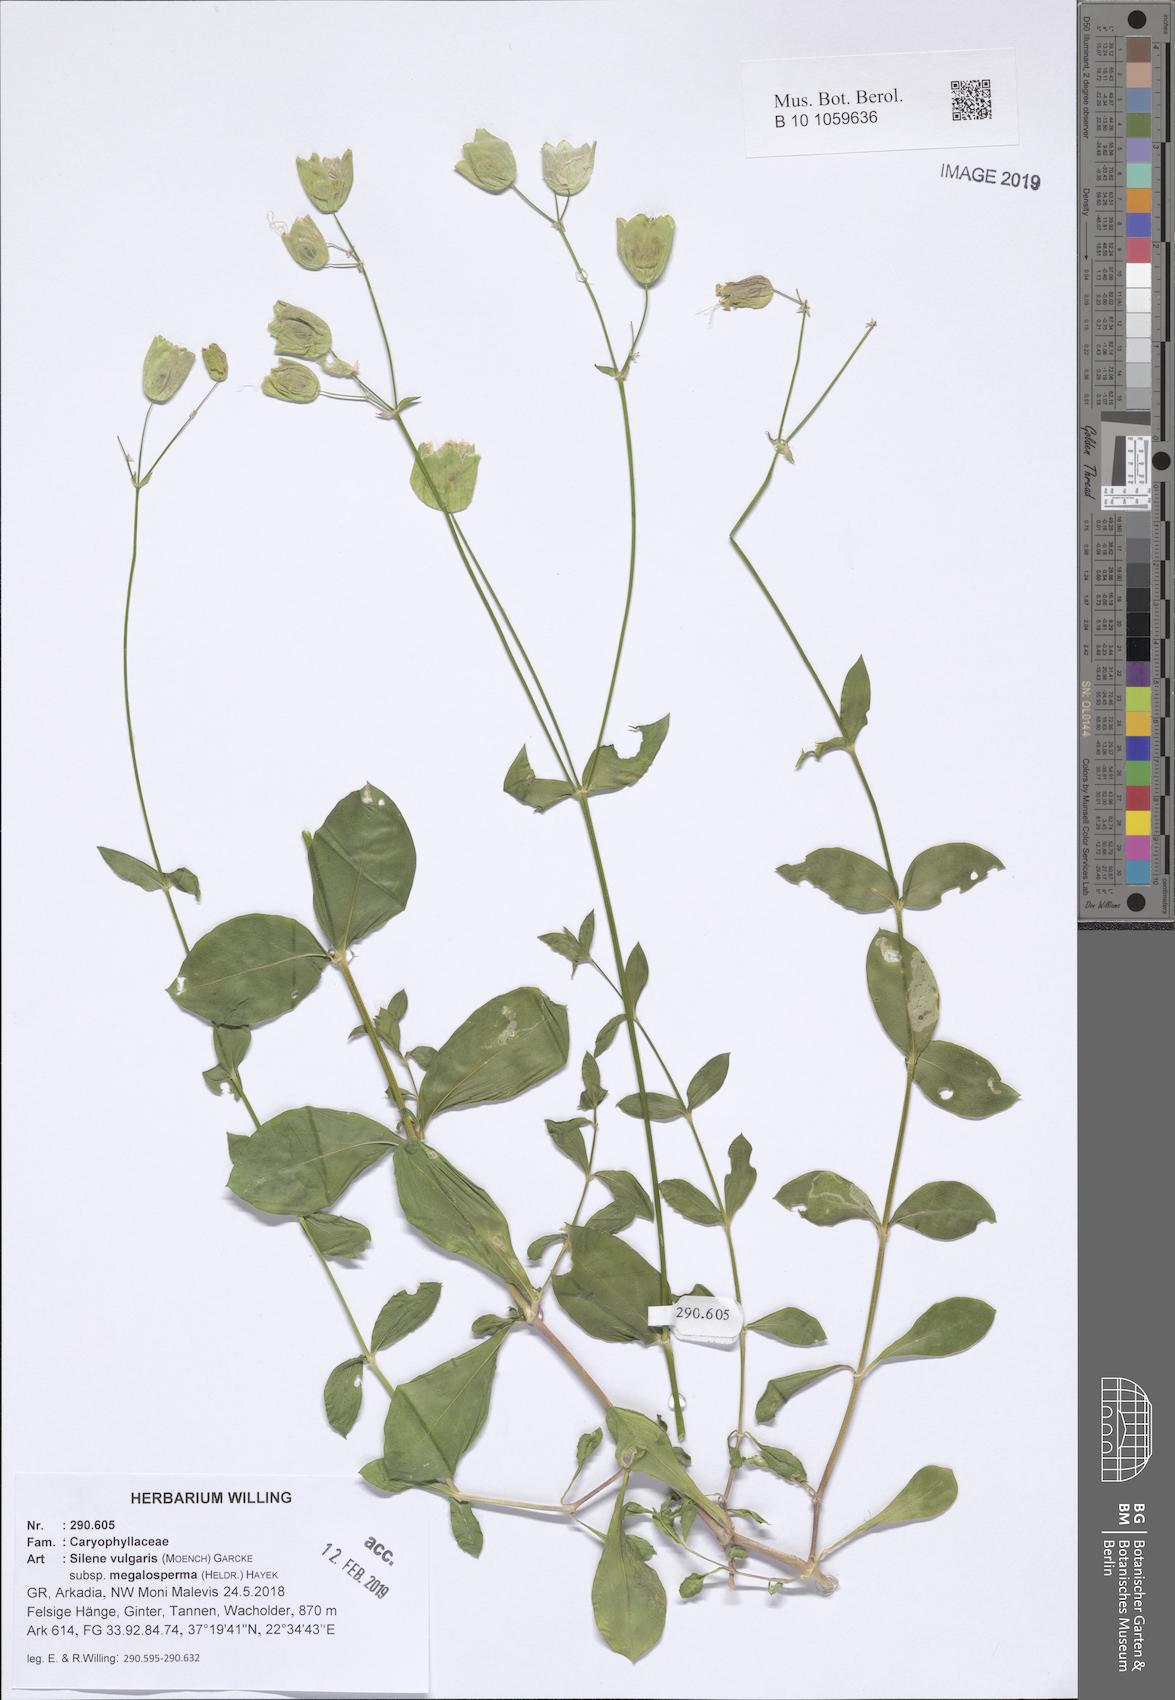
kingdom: Plantae
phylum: Tracheophyta
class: Magnoliopsida
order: Caryophyllales
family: Caryophyllaceae
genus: Silene
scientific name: Silene vulgaris
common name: Bladder campion
